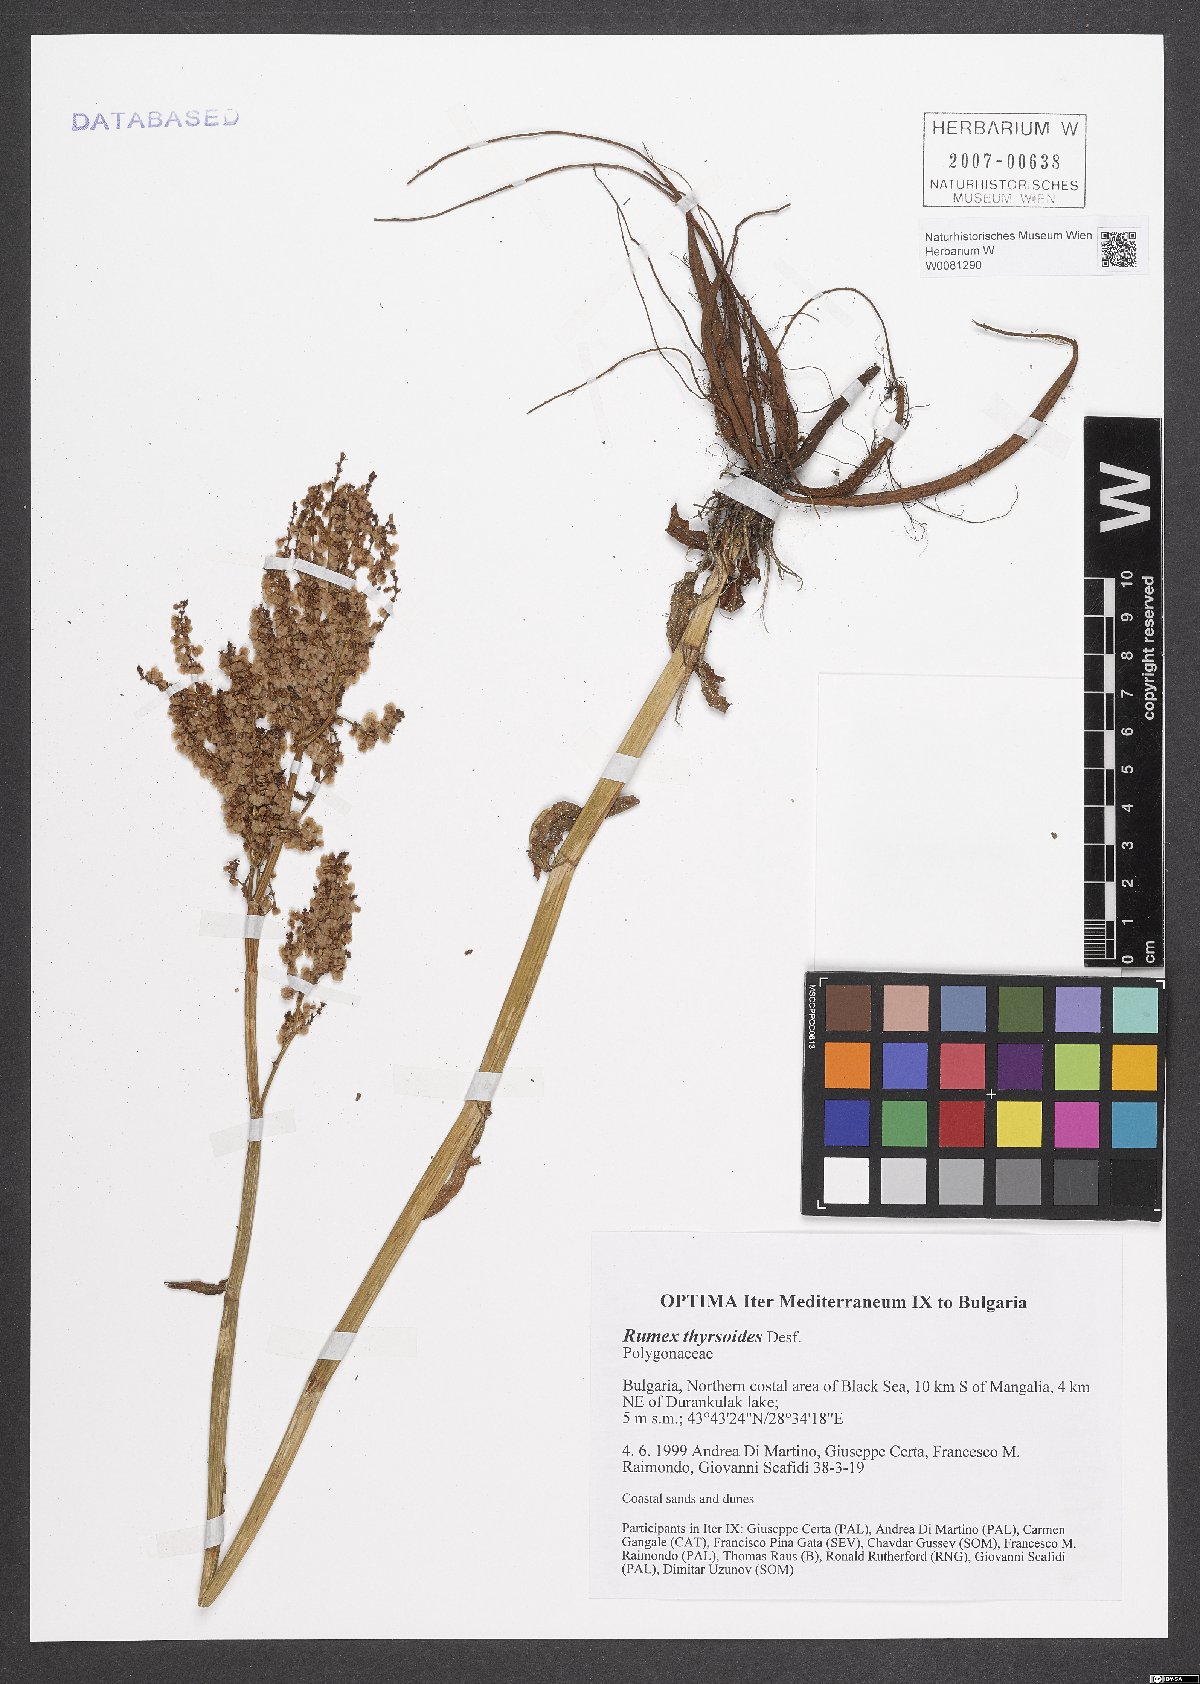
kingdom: Plantae
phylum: Tracheophyta
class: Magnoliopsida
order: Caryophyllales
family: Polygonaceae
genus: Rumex
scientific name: Rumex thyrsoides
